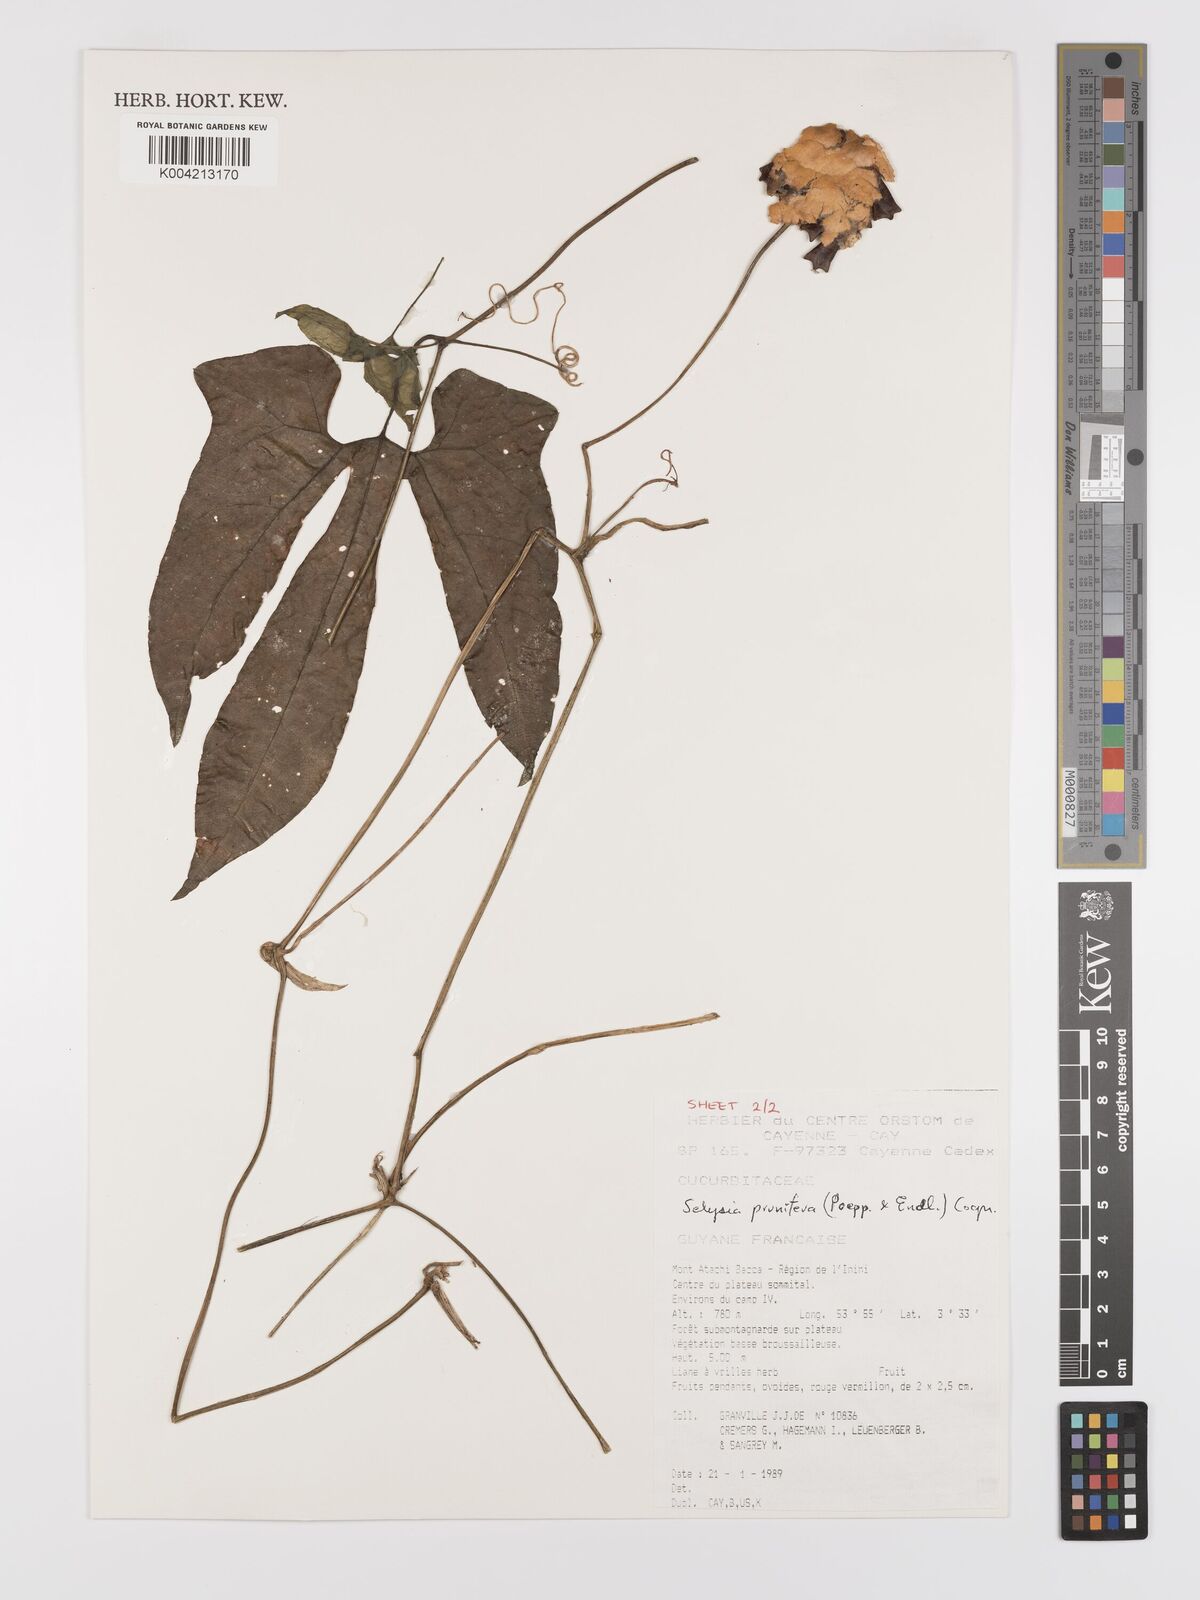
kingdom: Plantae
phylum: Tracheophyta
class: Magnoliopsida
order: Cucurbitales
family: Cucurbitaceae
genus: Cayaponia
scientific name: Cayaponia prunifera
